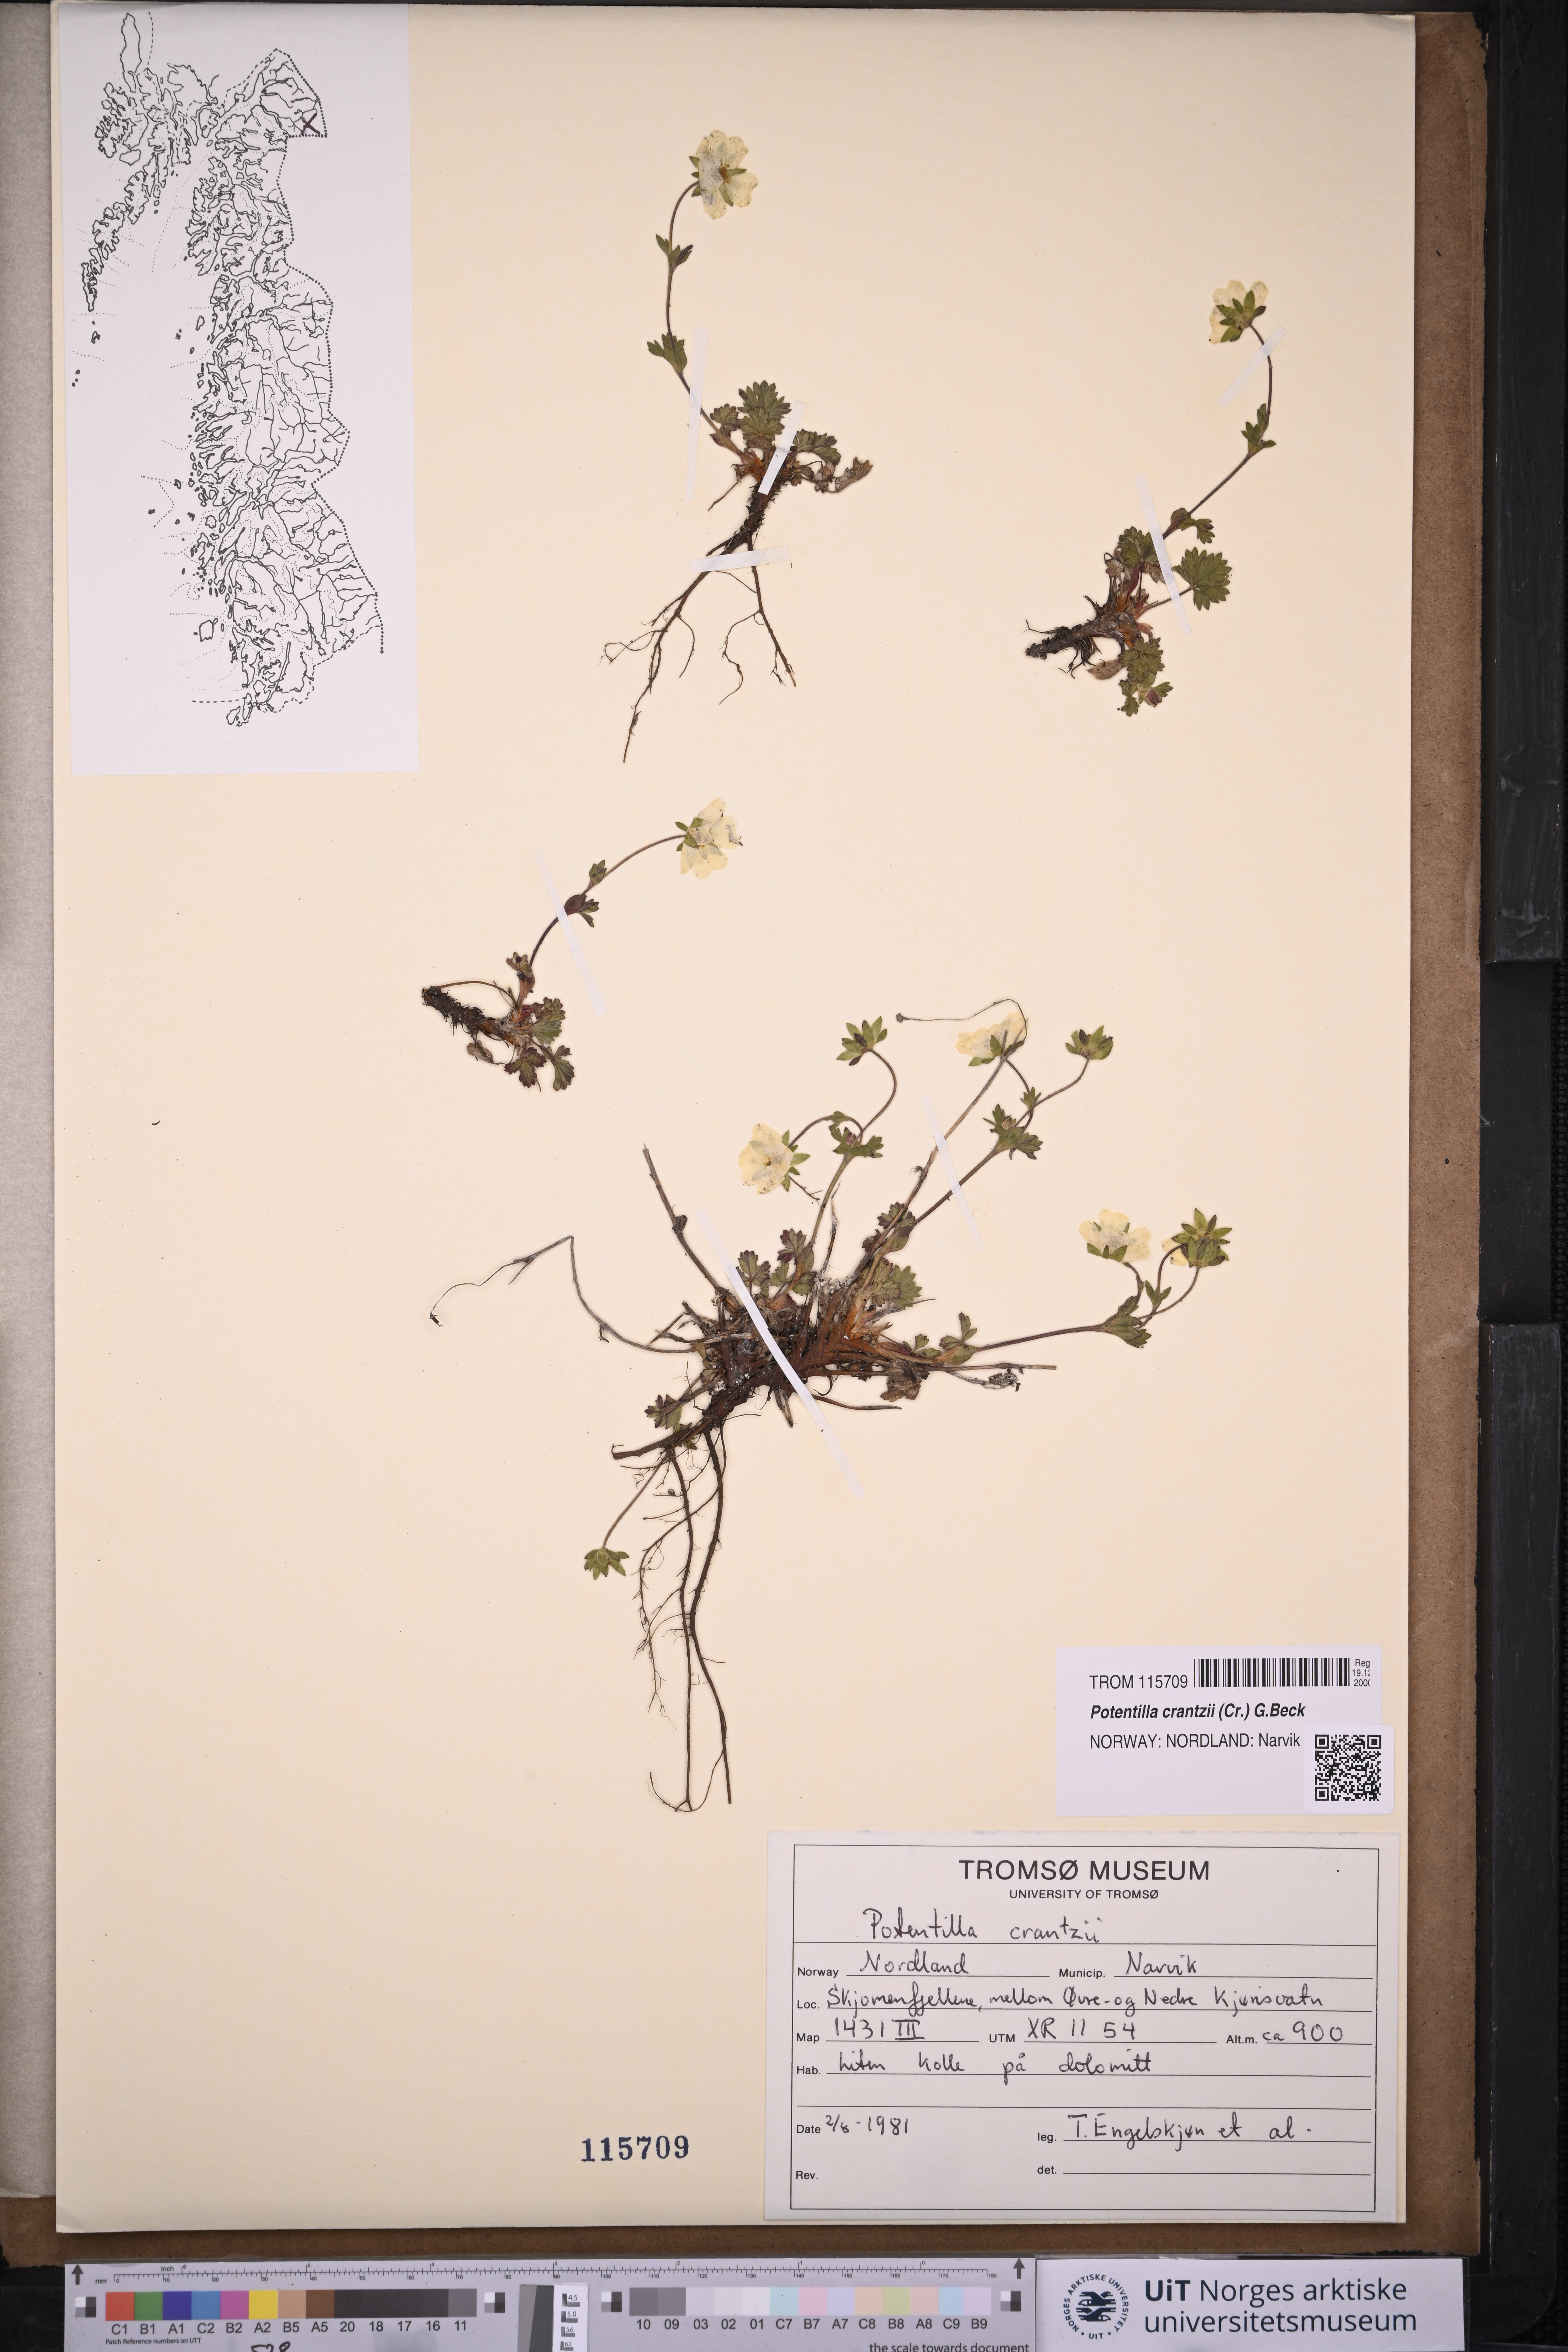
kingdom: Plantae
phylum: Tracheophyta
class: Magnoliopsida
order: Rosales
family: Rosaceae
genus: Potentilla
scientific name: Potentilla crantzii
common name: Alpine cinquefoil
